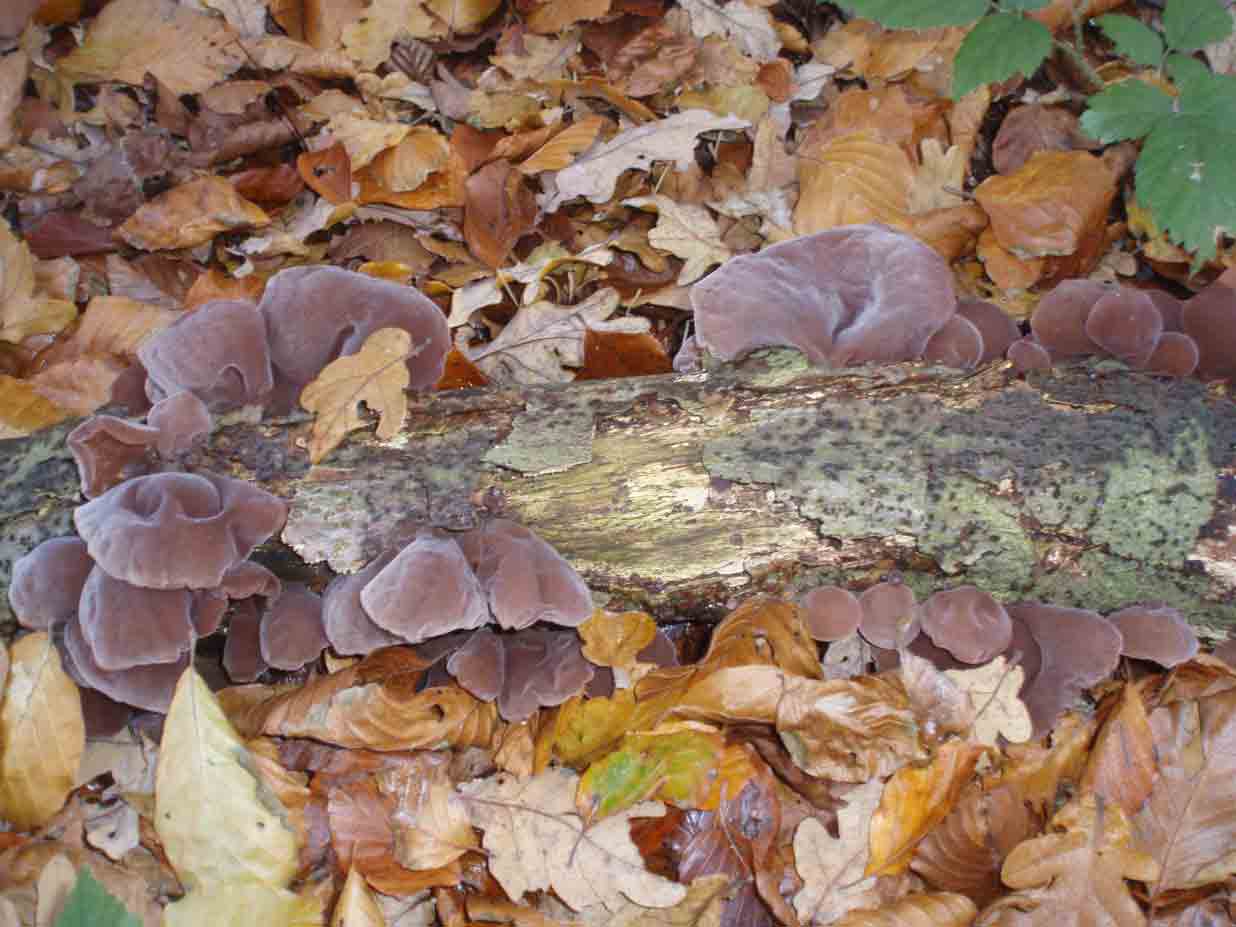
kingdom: Fungi
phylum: Basidiomycota
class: Agaricomycetes
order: Auriculariales
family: Auriculariaceae
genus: Auricularia
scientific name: Auricularia auricula-judae
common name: almindelig judasøre
